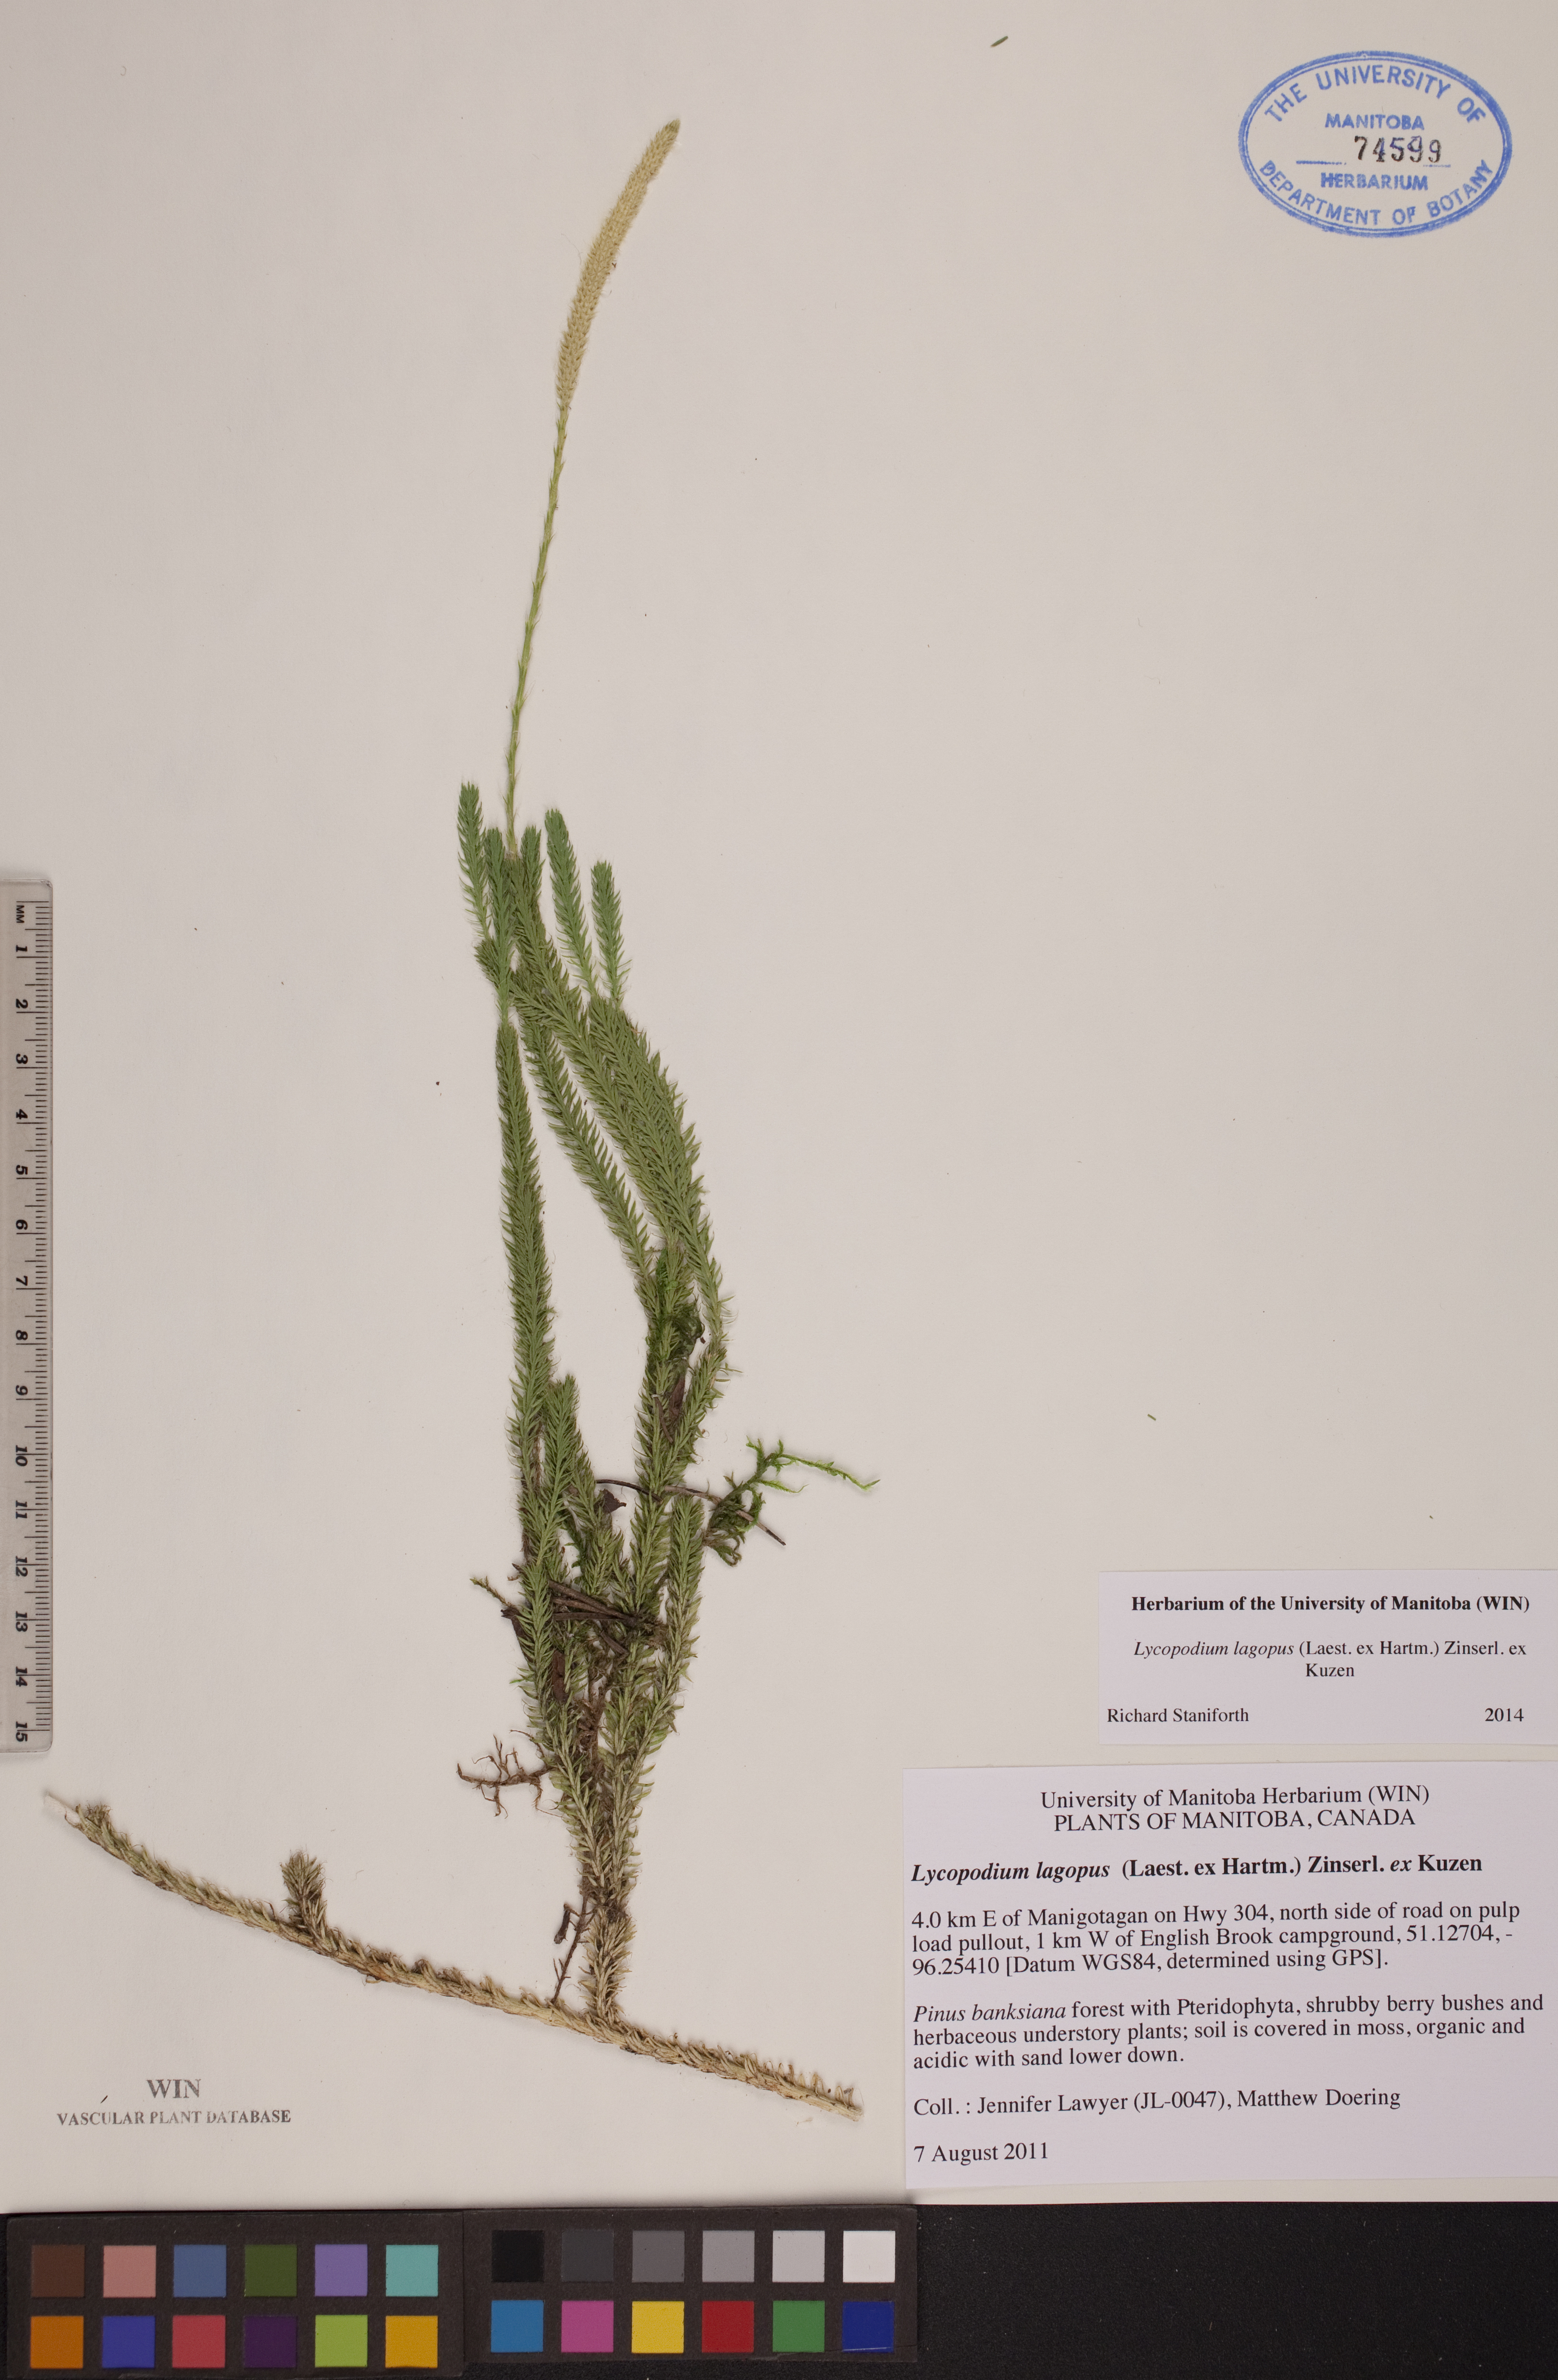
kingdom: Plantae
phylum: Tracheophyta
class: Lycopodiopsida
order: Lycopodiales
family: Lycopodiaceae
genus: Lycopodium
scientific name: Lycopodium lagopus
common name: One-cone clubmoss
